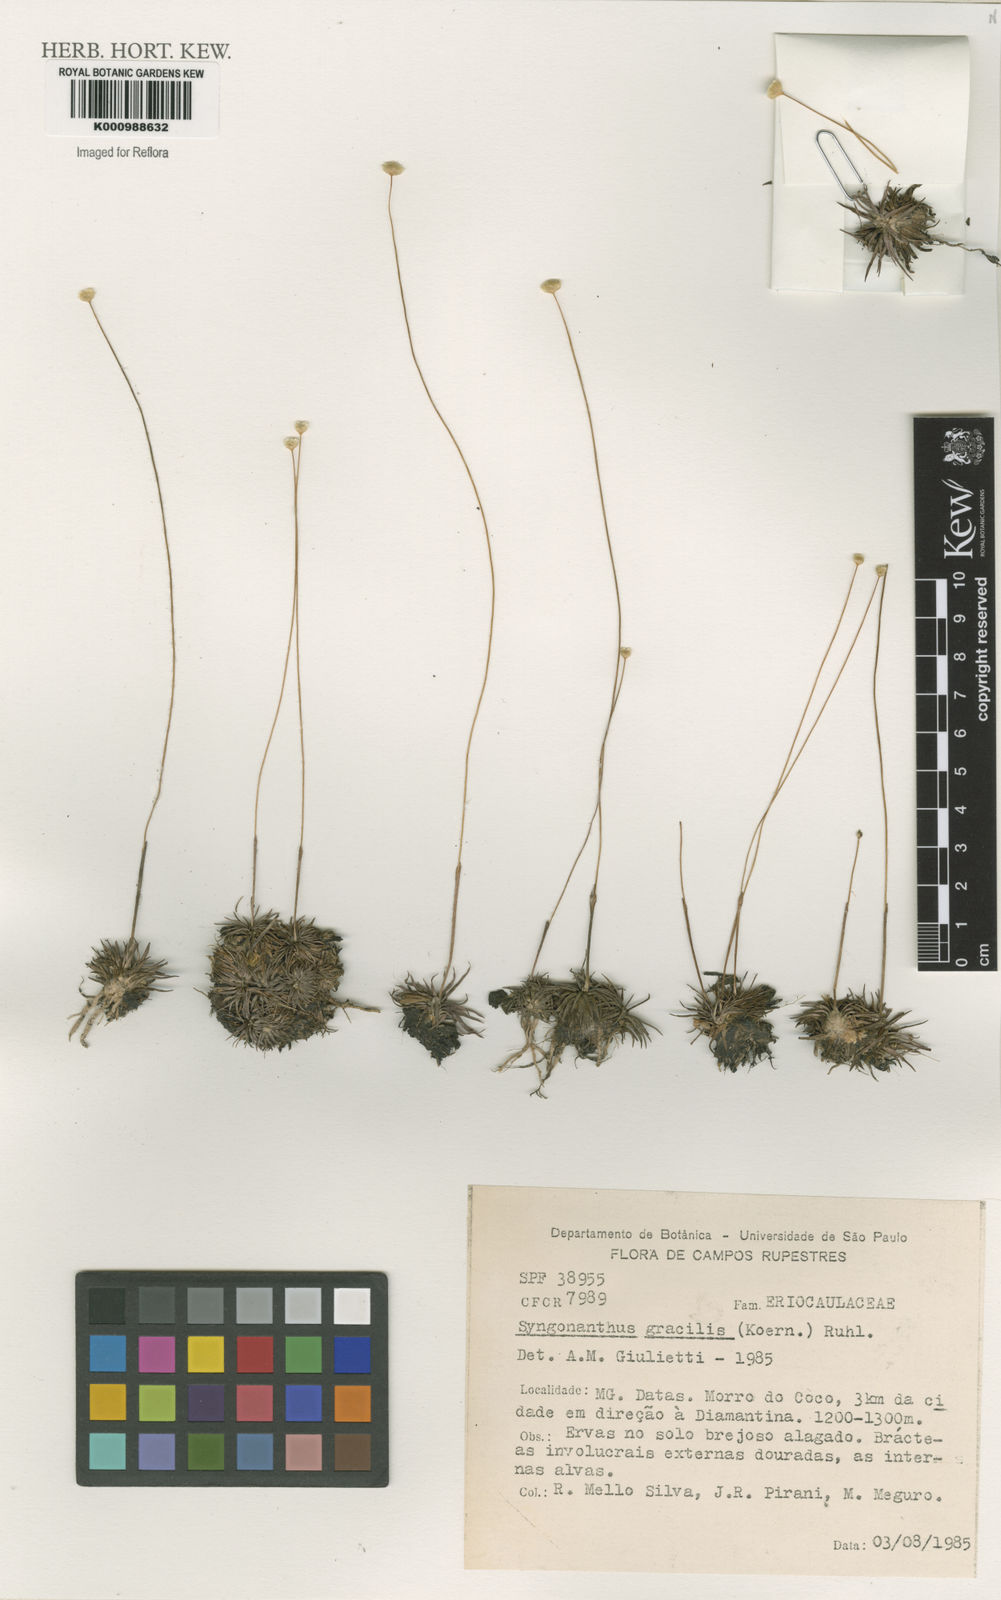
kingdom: Plantae
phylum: Tracheophyta
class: Liliopsida
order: Poales
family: Eriocaulaceae
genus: Syngonanthus
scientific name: Syngonanthus gracilis
